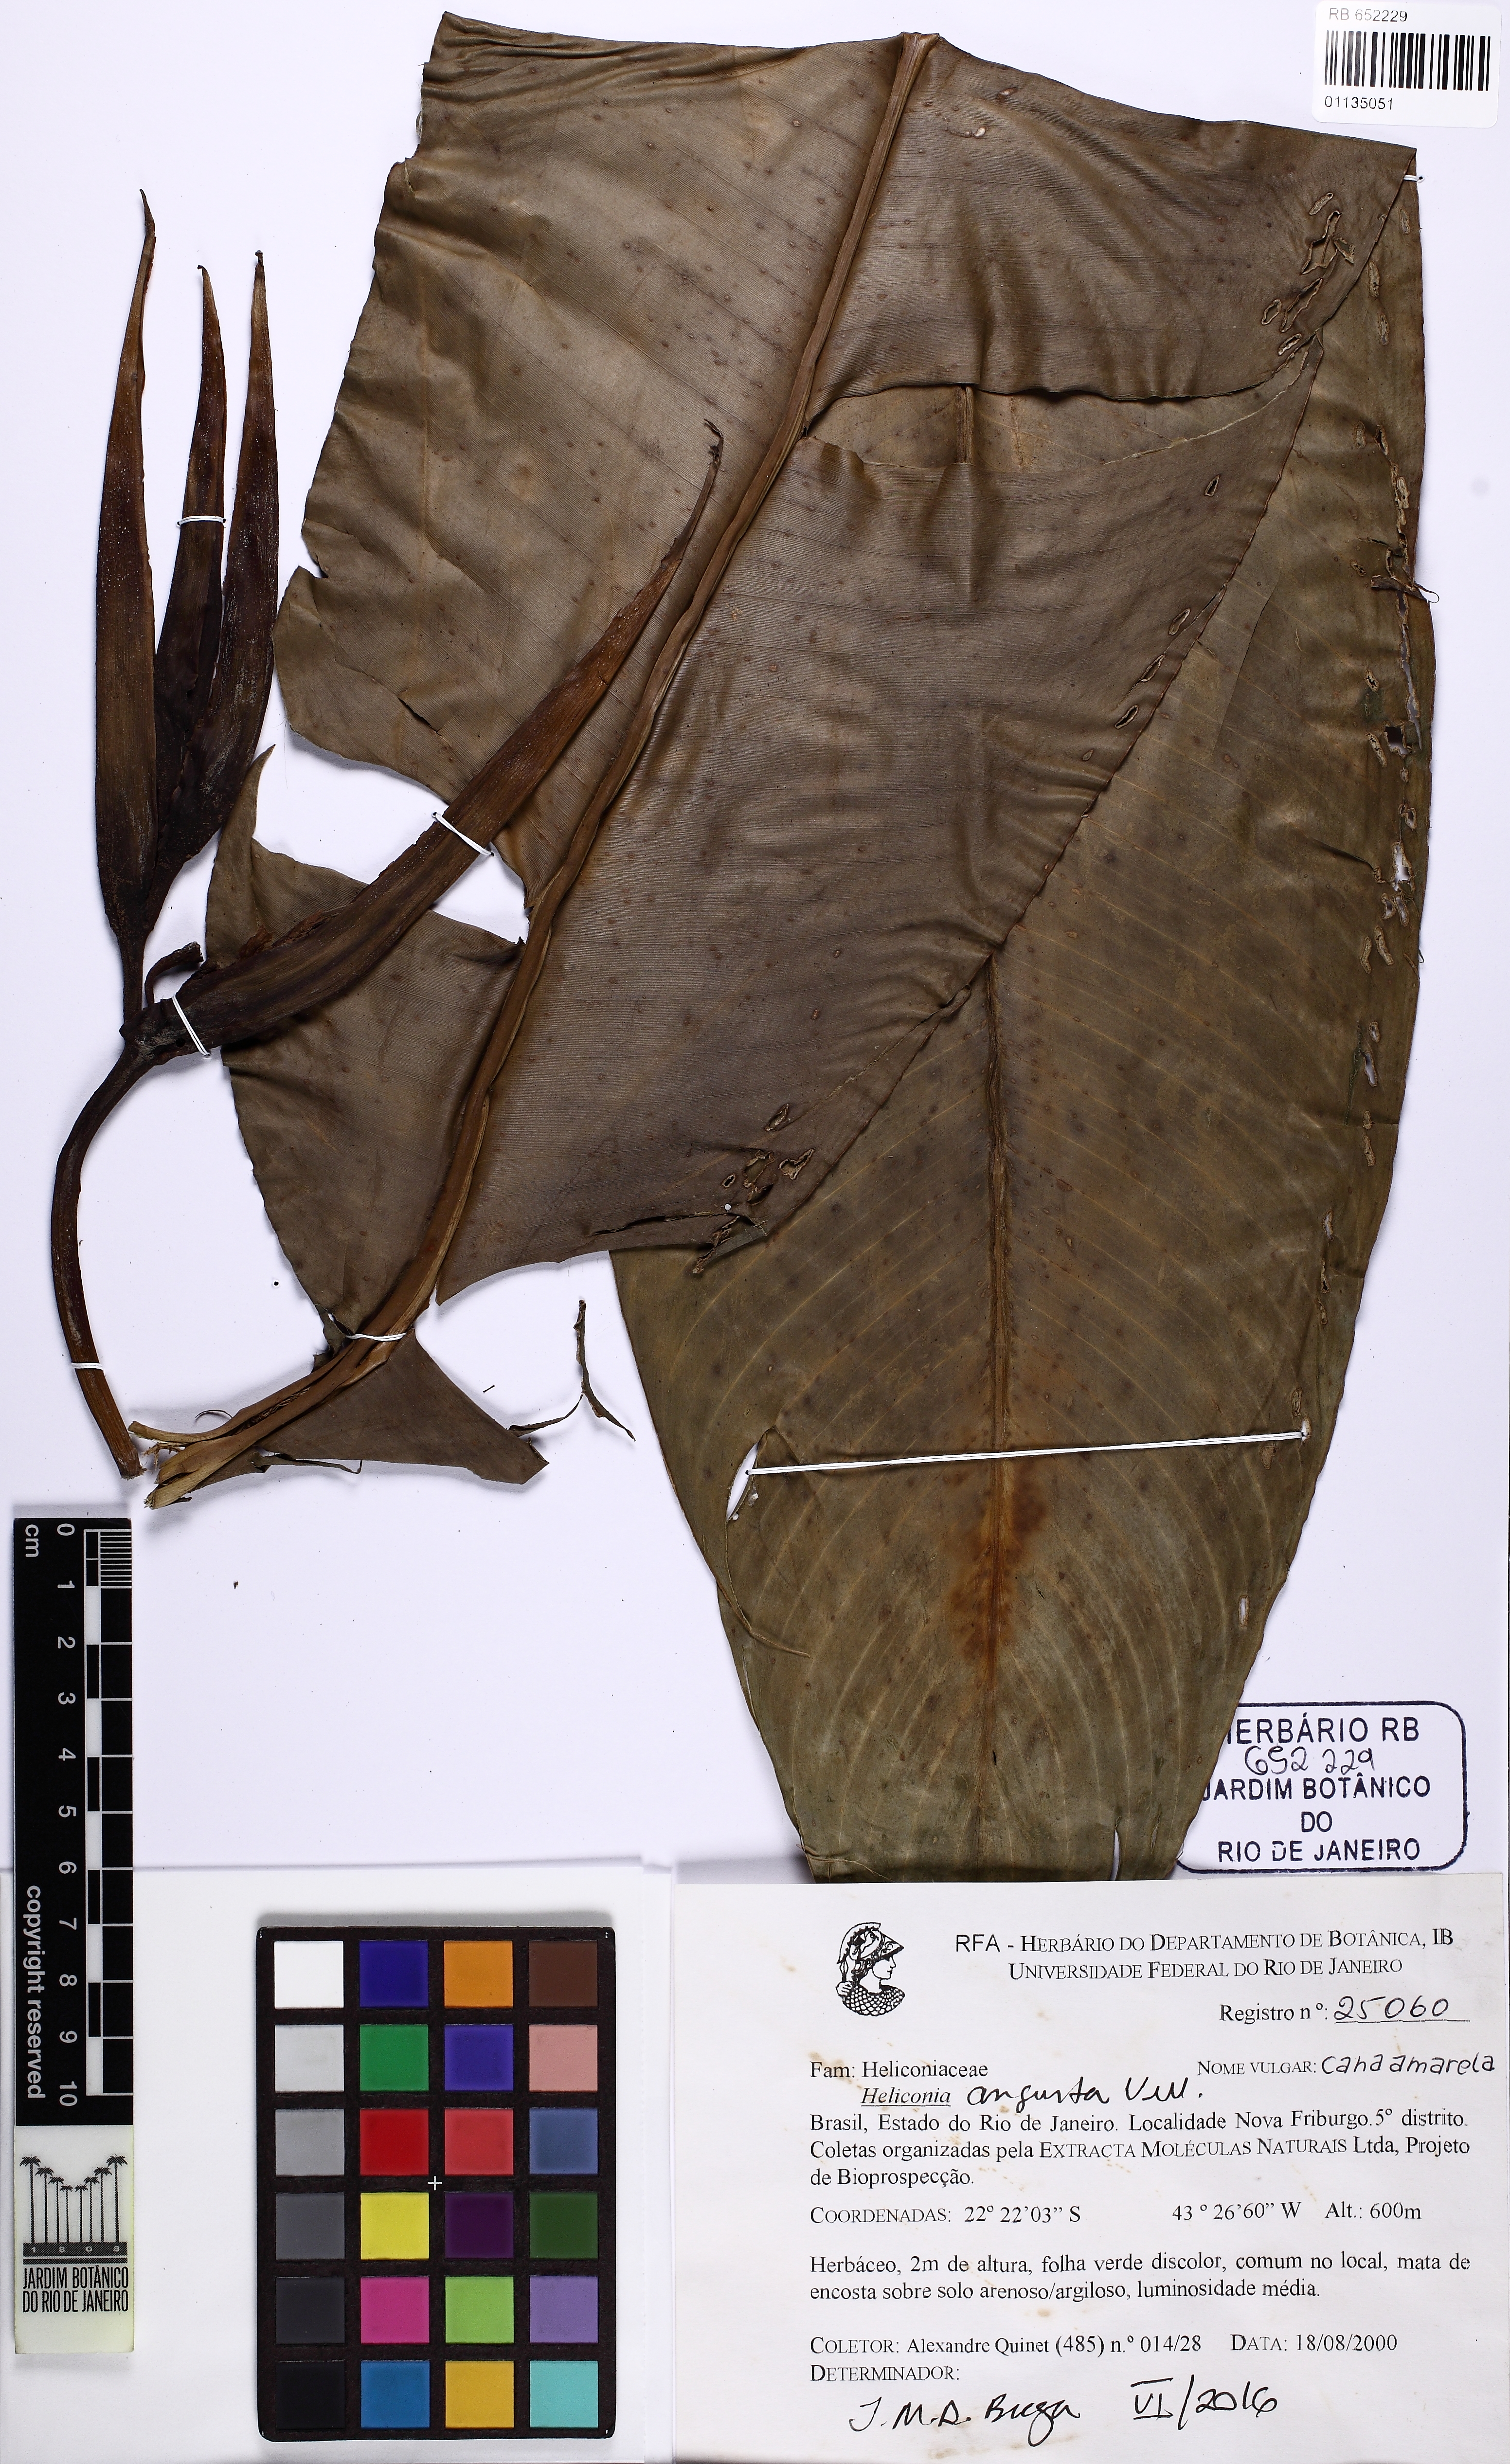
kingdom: Plantae
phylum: Tracheophyta
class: Liliopsida
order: Zingiberales
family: Heliconiaceae
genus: Heliconia
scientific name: Heliconia angusta
